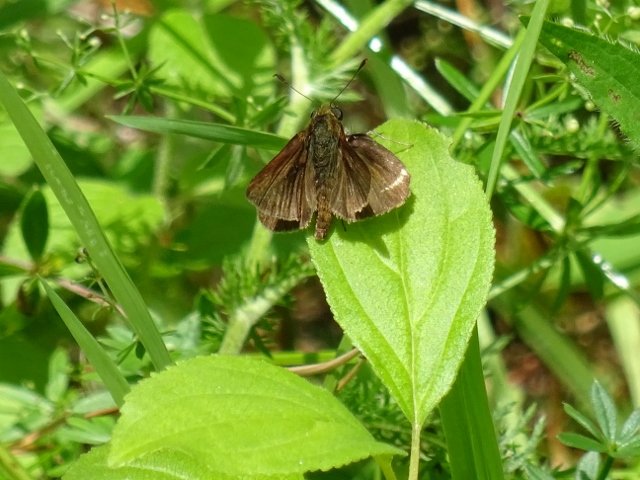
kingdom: Animalia
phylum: Arthropoda
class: Insecta
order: Lepidoptera
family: Hesperiidae
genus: Euphyes
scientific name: Euphyes vestris
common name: Dun Skipper
